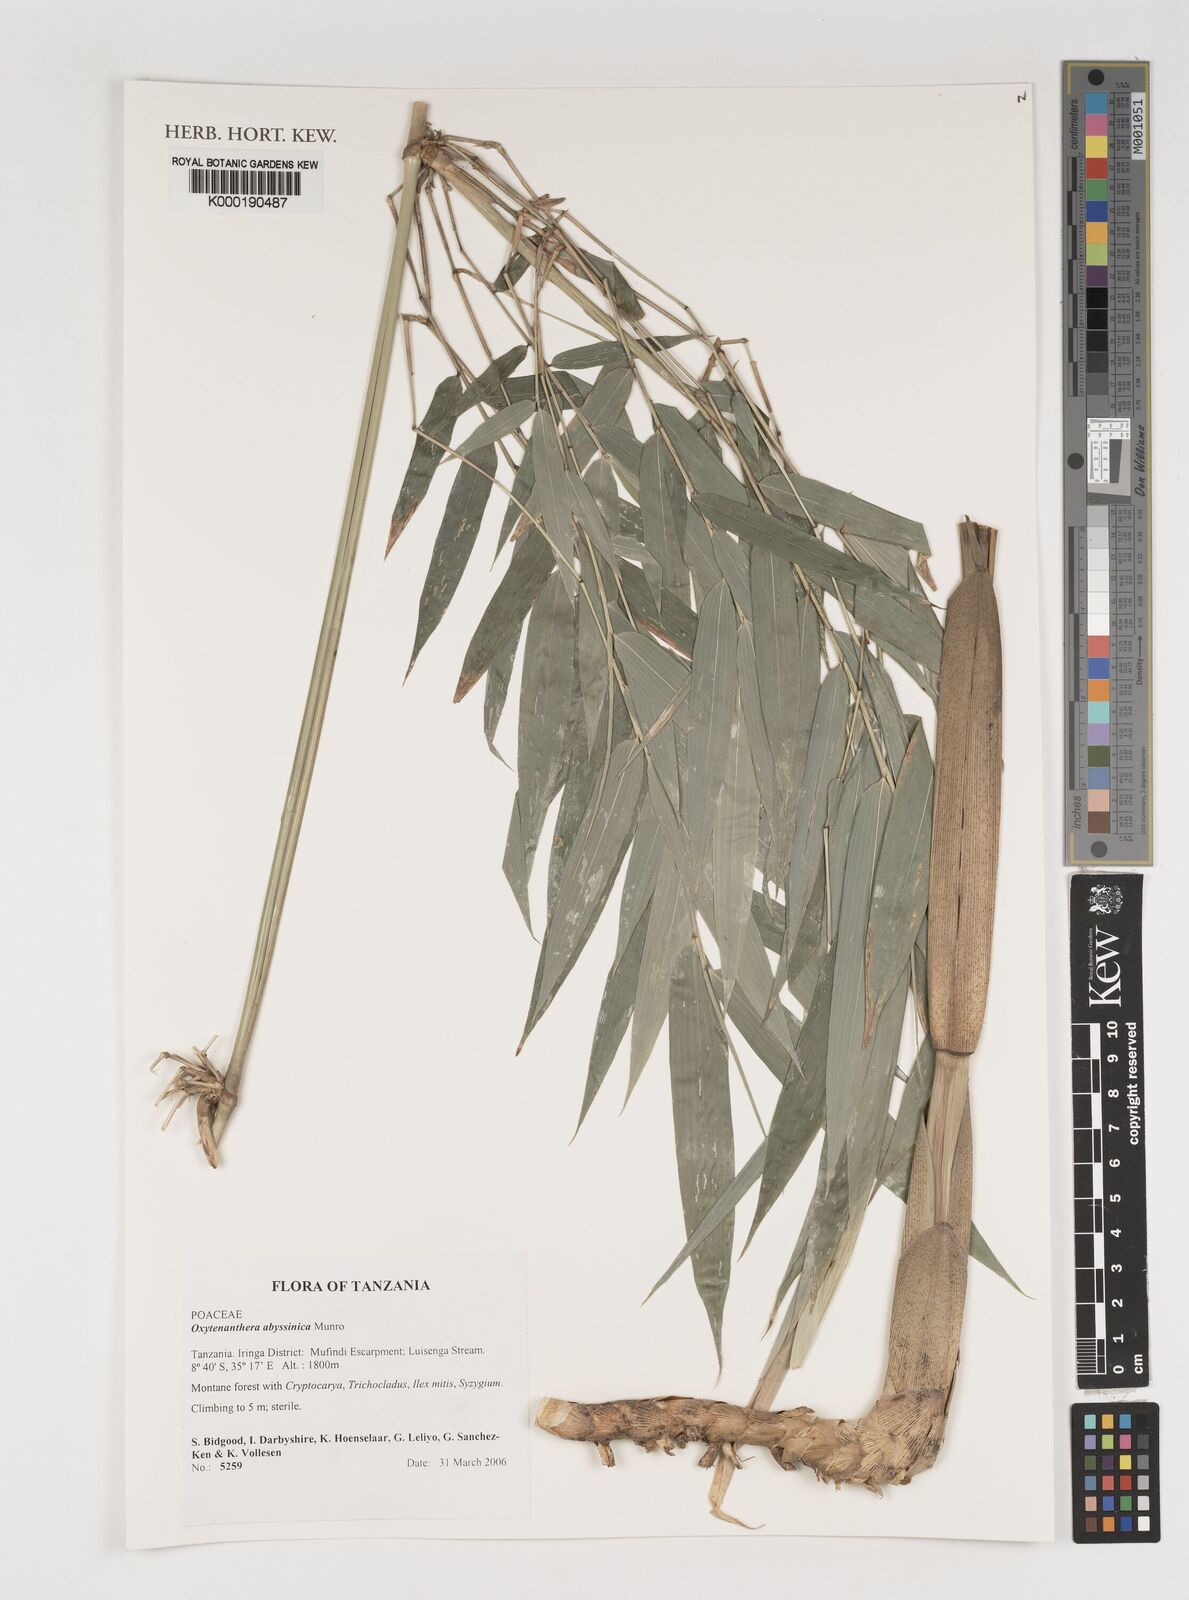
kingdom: Plantae
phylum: Tracheophyta
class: Liliopsida
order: Poales
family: Poaceae
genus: Oxytenanthera
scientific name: Oxytenanthera abyssinica
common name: Wine bamboo
